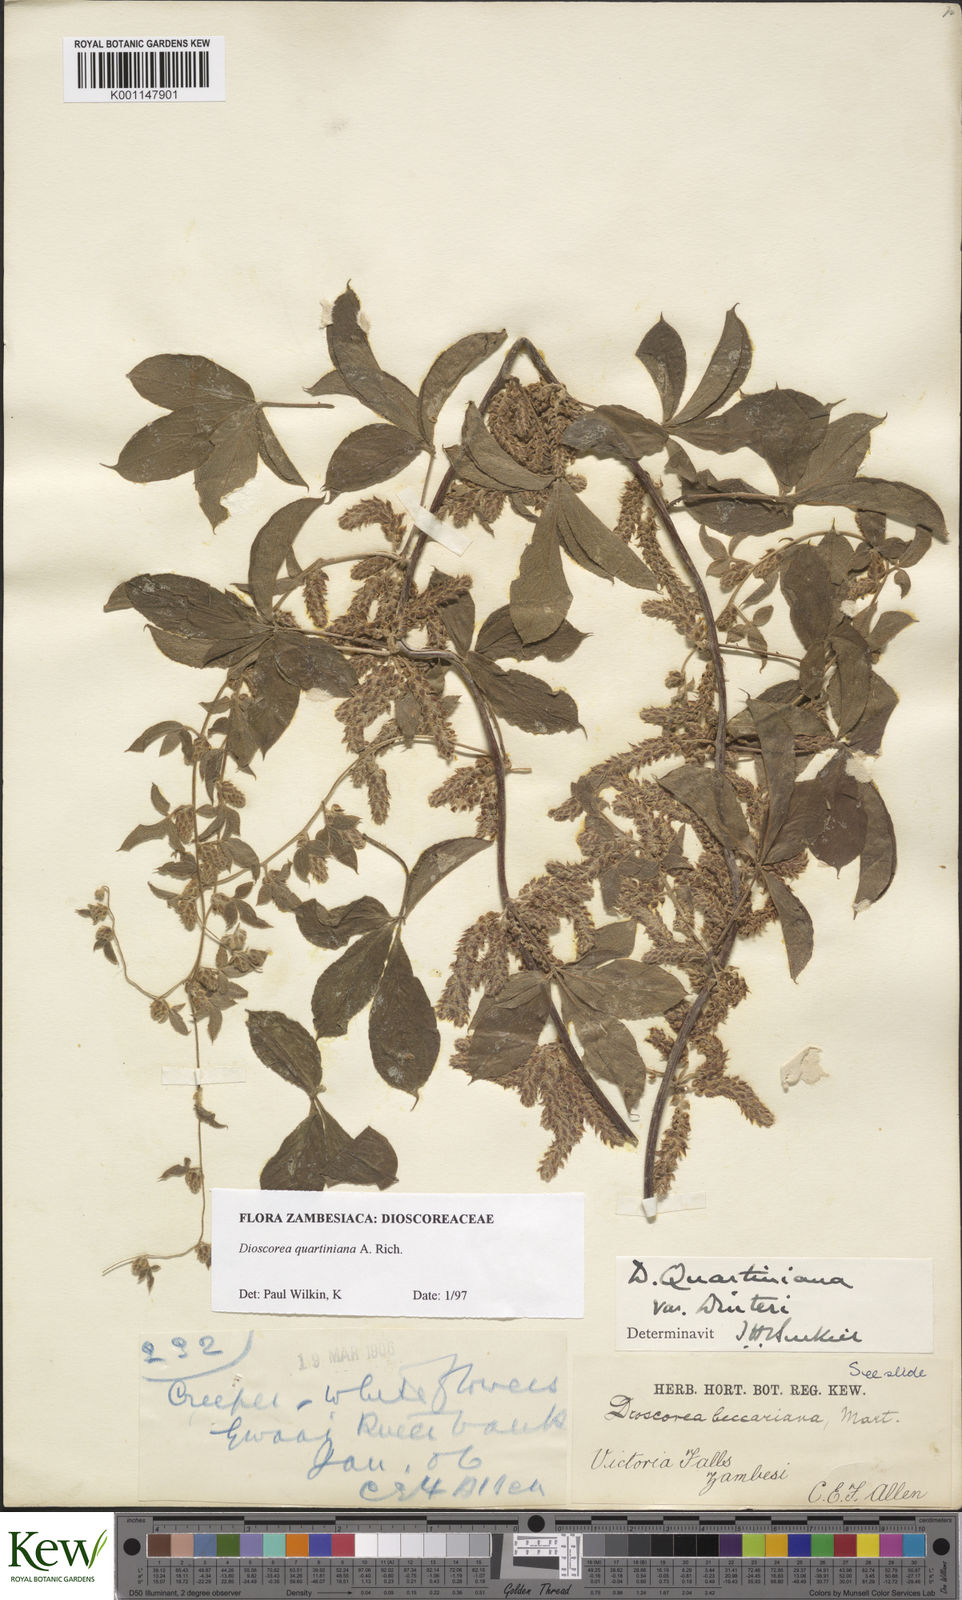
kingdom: Plantae
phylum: Tracheophyta
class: Liliopsida
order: Dioscoreales
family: Dioscoreaceae
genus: Dioscorea
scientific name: Dioscorea quartiniana
